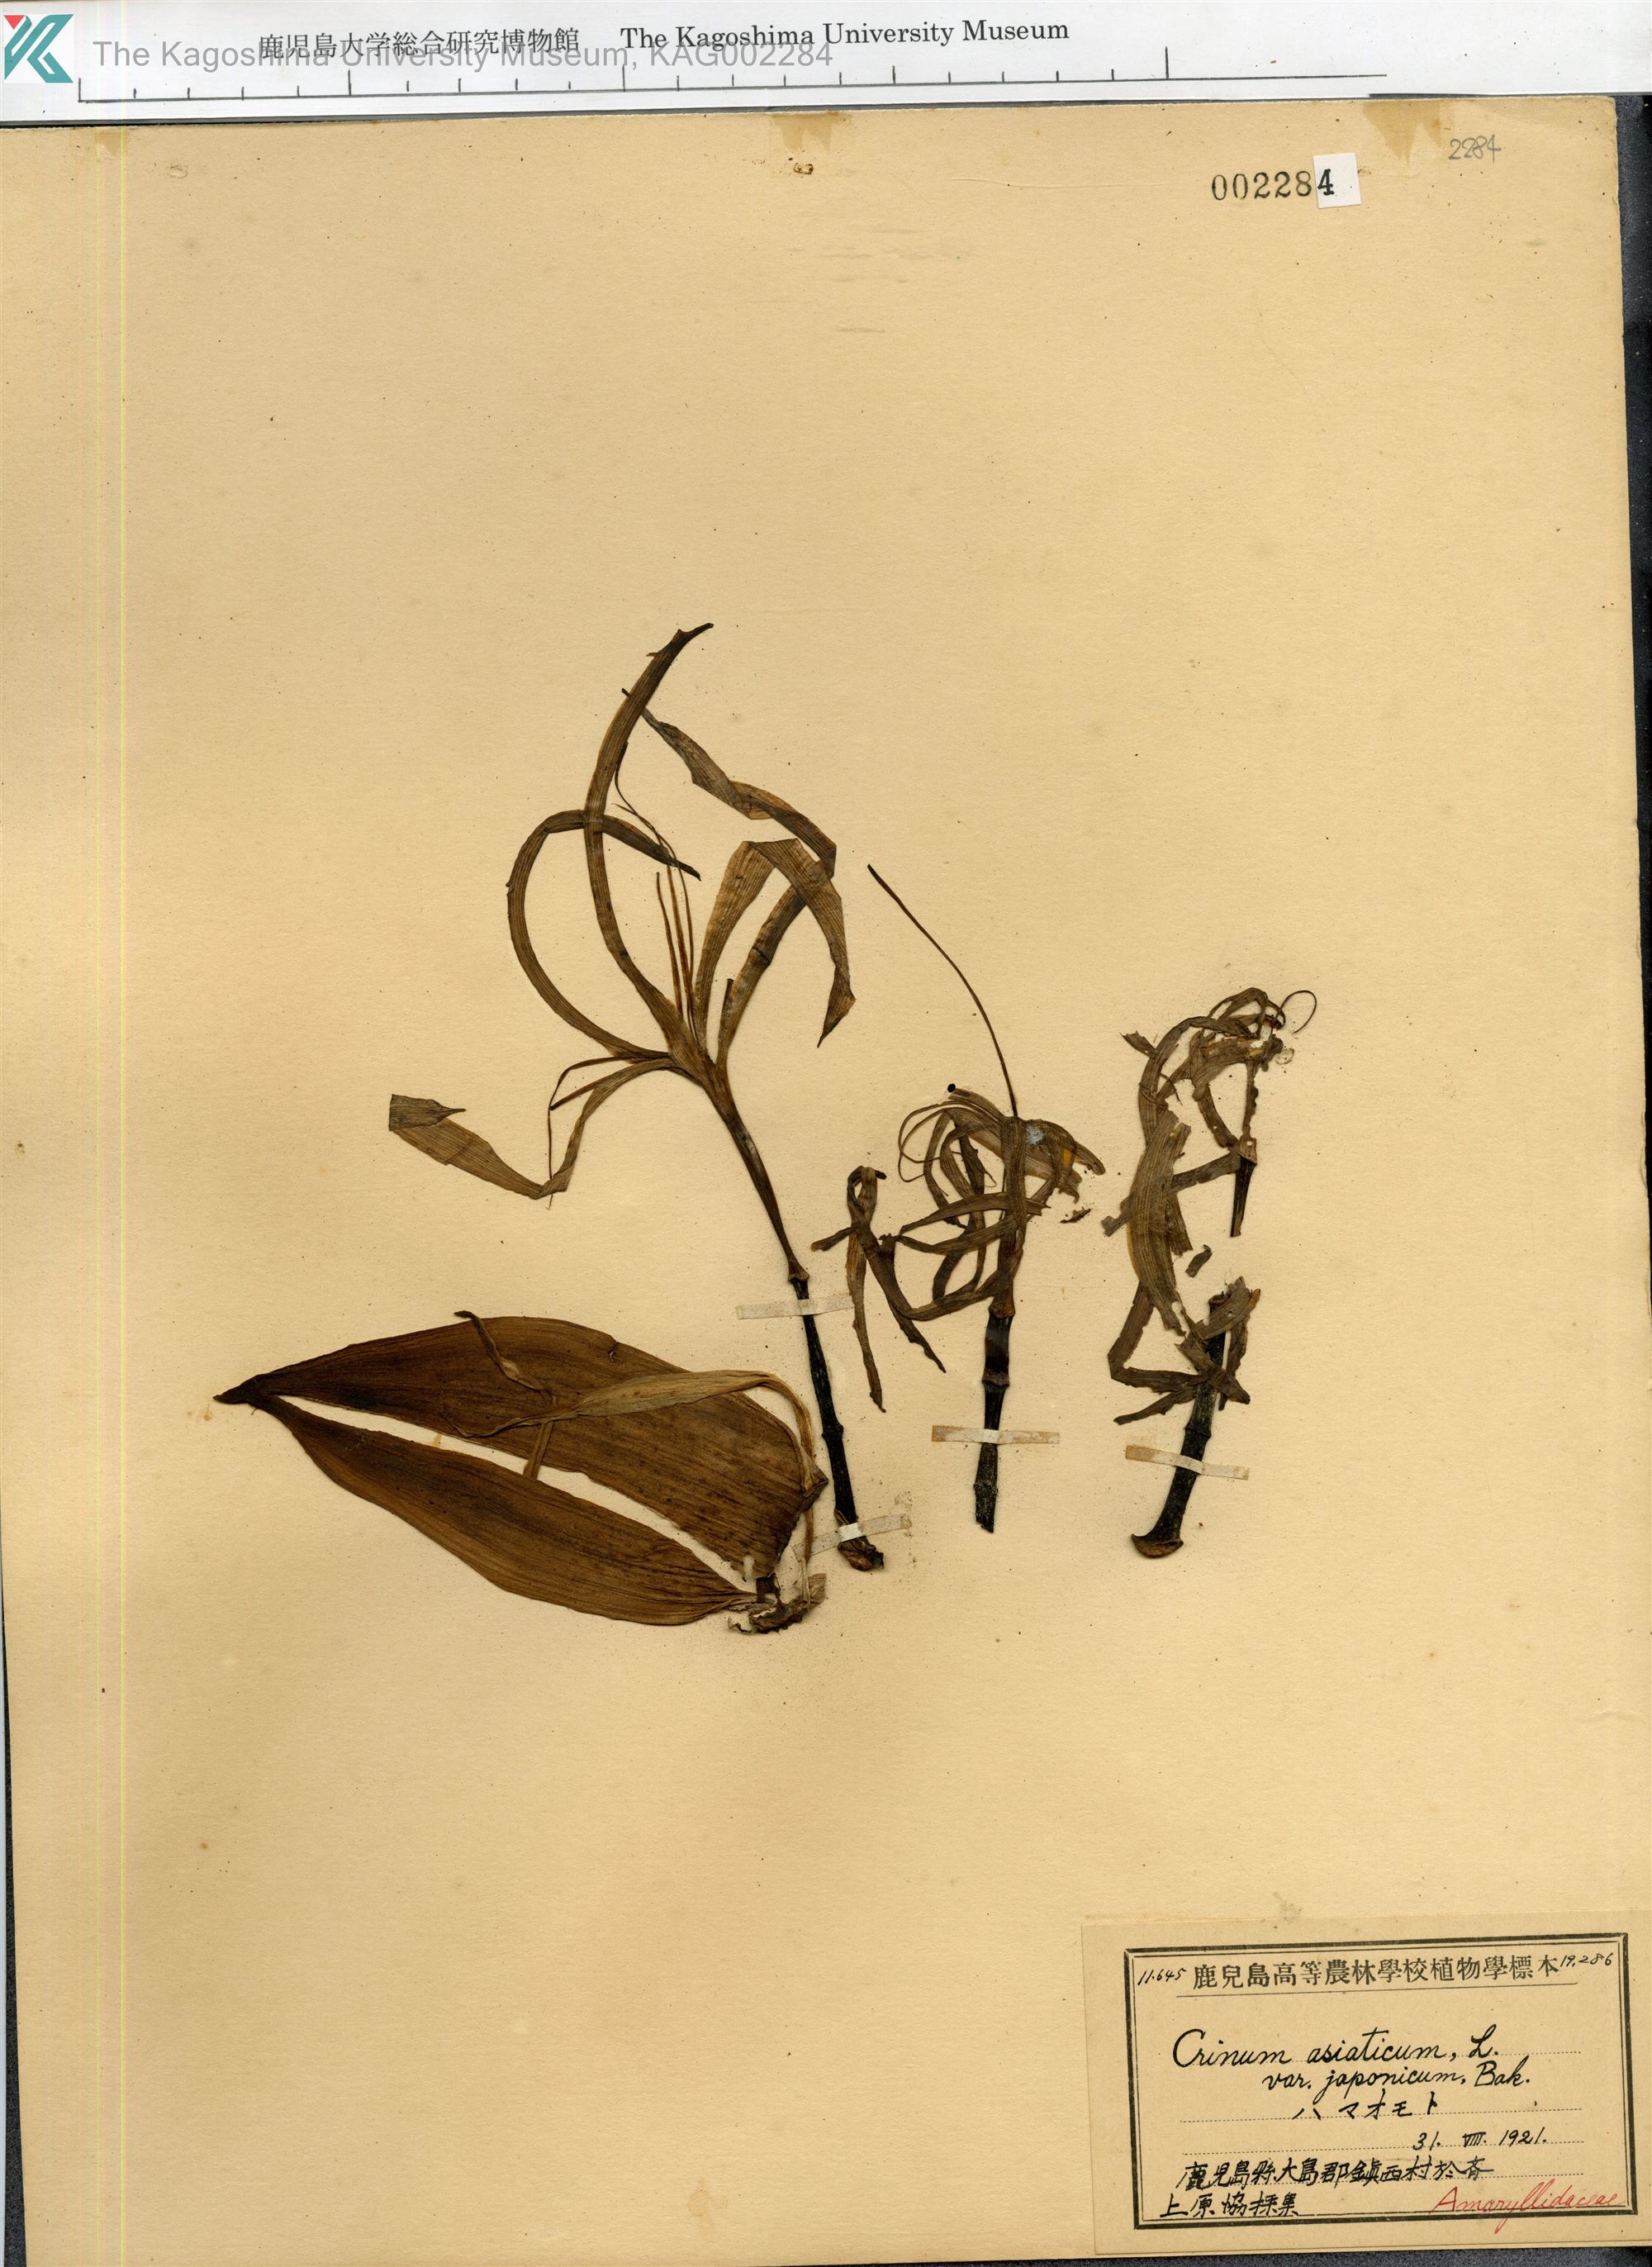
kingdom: Plantae
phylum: Tracheophyta
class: Liliopsida
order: Asparagales
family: Amaryllidaceae
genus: Crinum
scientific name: Crinum asiaticum
